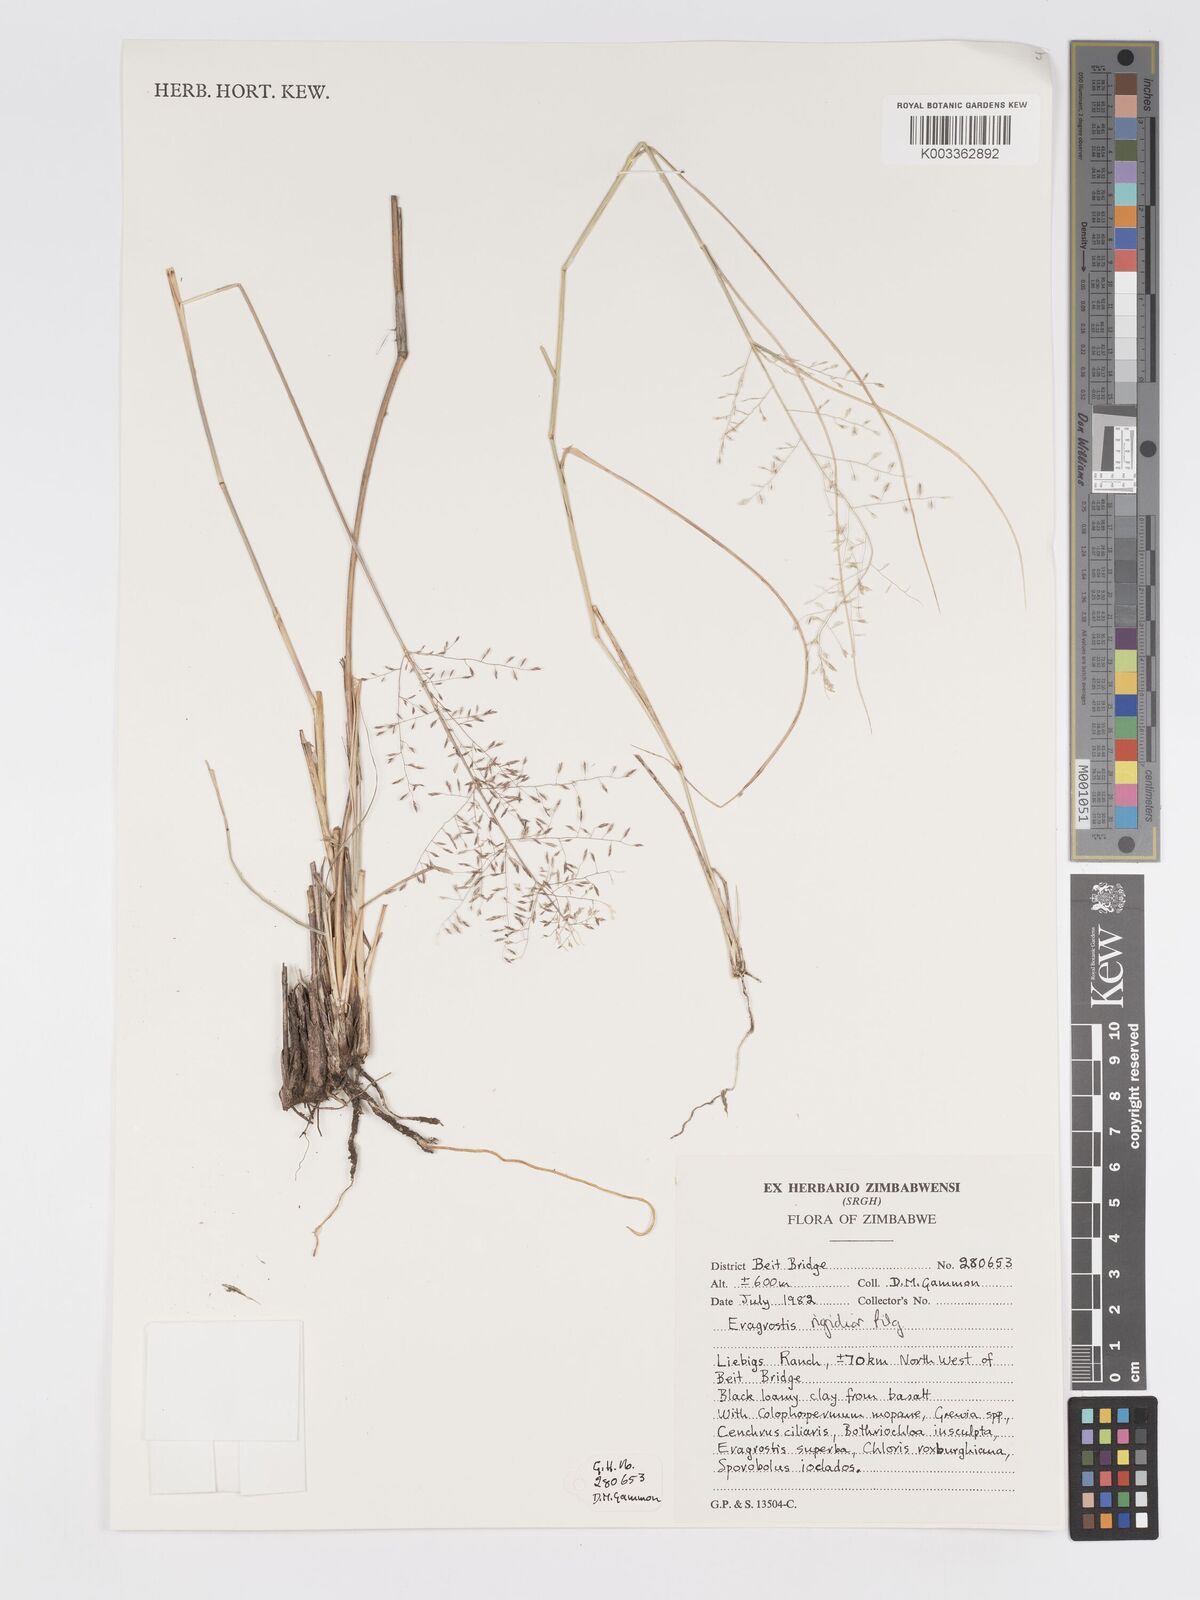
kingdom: Plantae
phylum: Tracheophyta
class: Liliopsida
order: Poales
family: Poaceae
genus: Eragrostis
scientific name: Eragrostis cylindriflora
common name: Cylinderflower lovegrass
